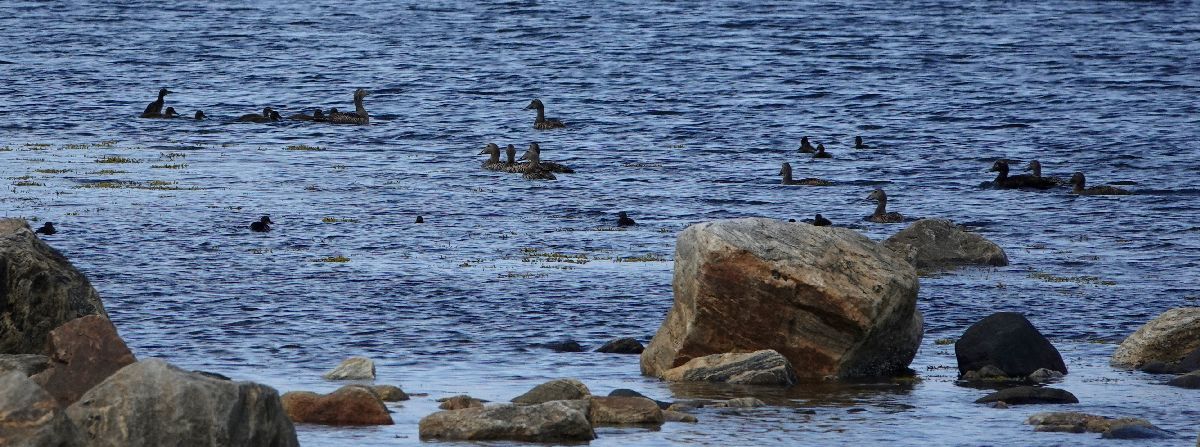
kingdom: Animalia
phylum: Chordata
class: Aves
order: Anseriformes
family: Anatidae
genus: Somateria
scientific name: Somateria mollissima
